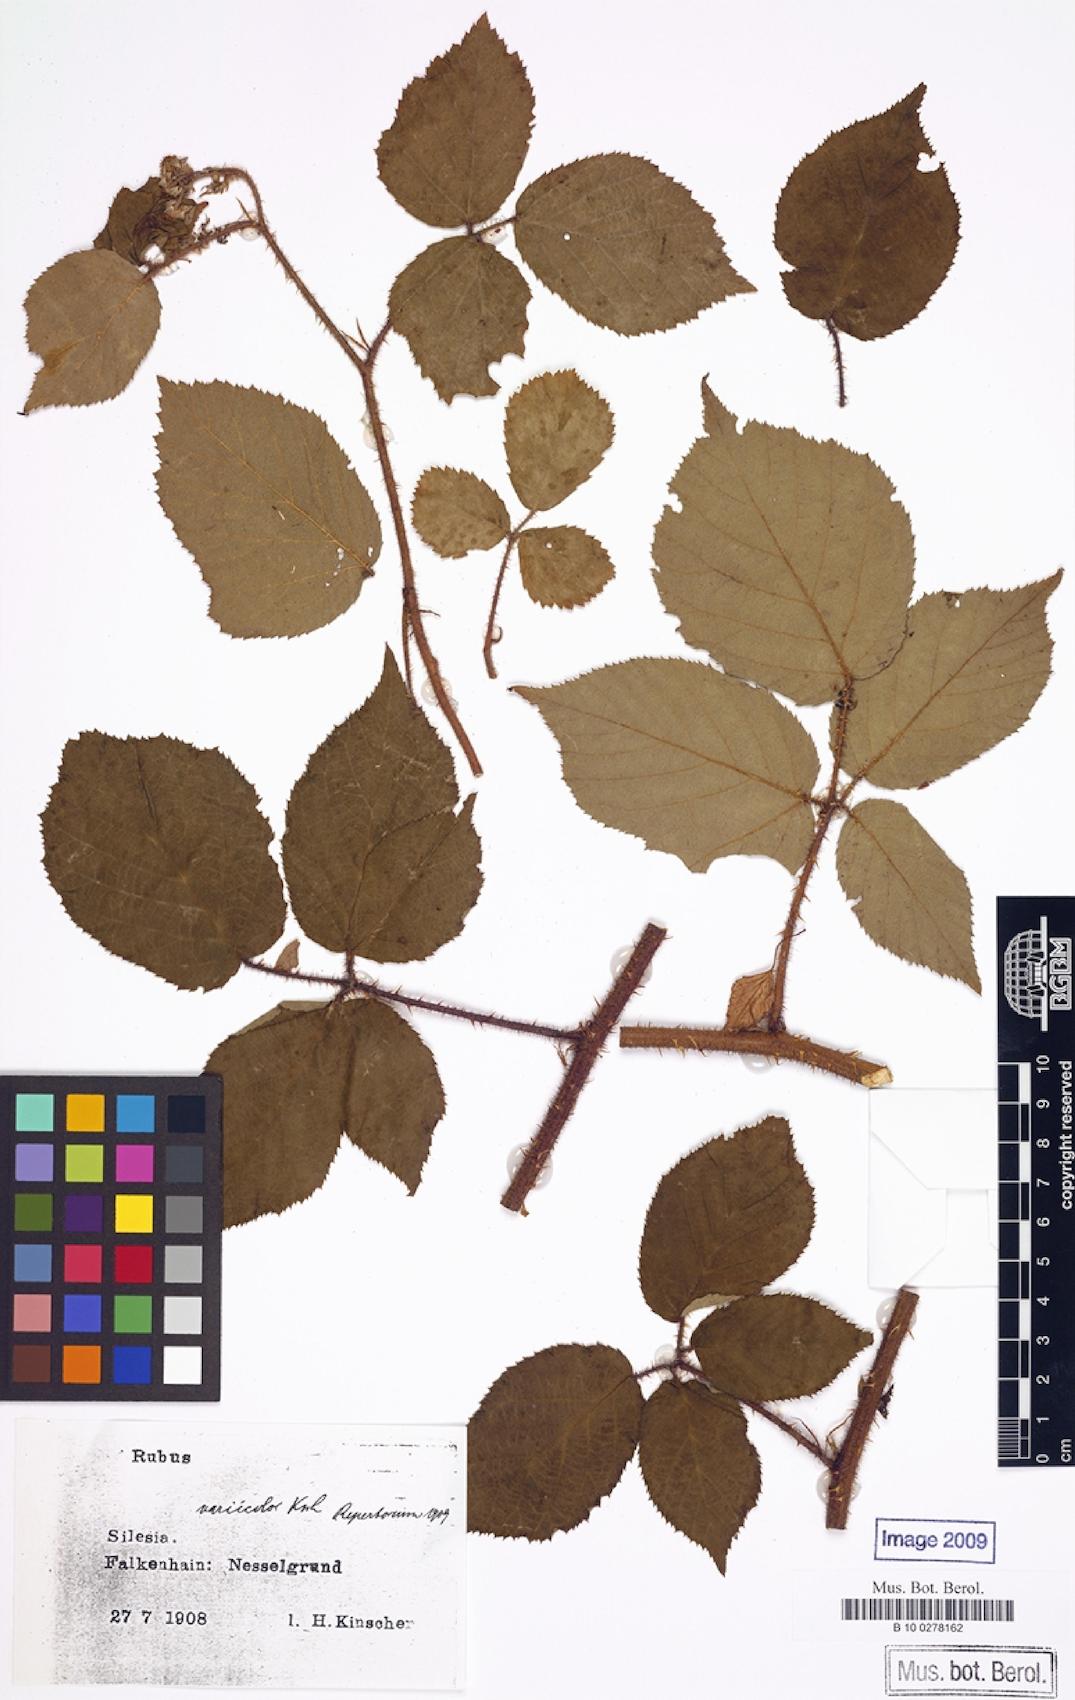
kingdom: Plantae
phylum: Tracheophyta
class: Magnoliopsida
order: Rosales
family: Rosaceae
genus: Rubus
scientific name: Rubus variicolor
